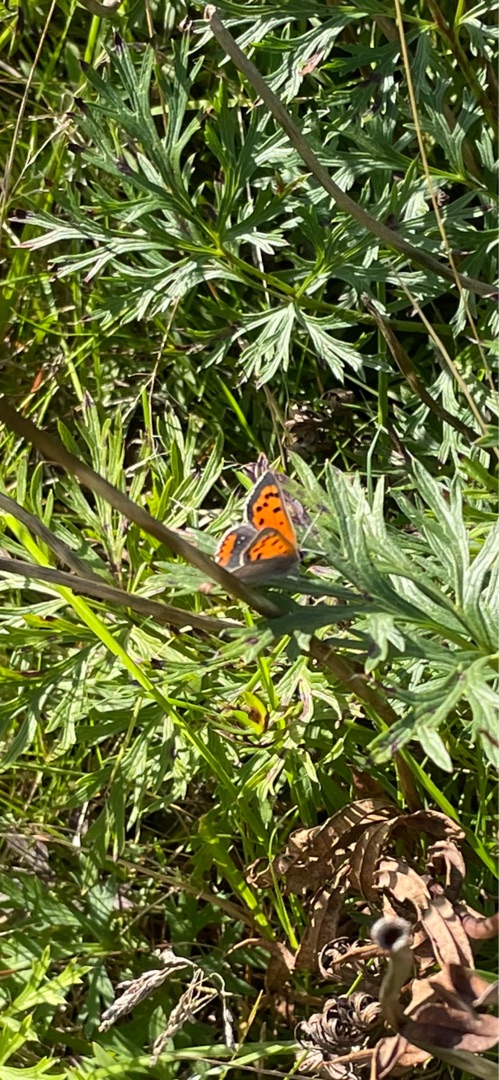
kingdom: Animalia
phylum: Arthropoda
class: Insecta
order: Lepidoptera
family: Lycaenidae
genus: Lycaena
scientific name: Lycaena phlaeas
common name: Lille ildfugl
